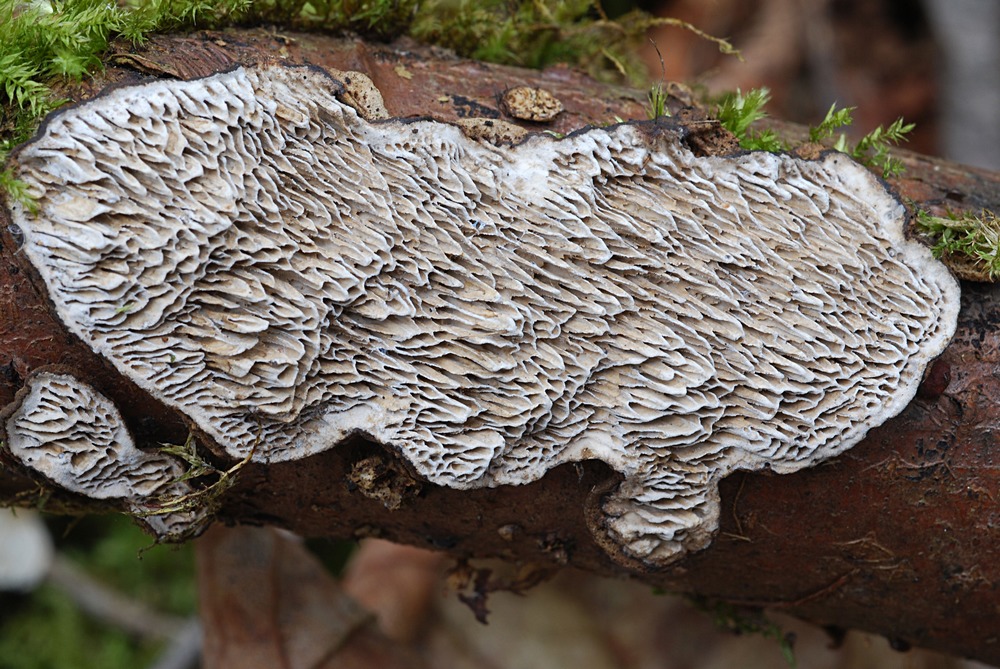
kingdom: Fungi
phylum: Basidiomycota
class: Agaricomycetes
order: Polyporales
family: Polyporaceae
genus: Podofomes
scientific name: Podofomes mollis
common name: blød begporesvamp
